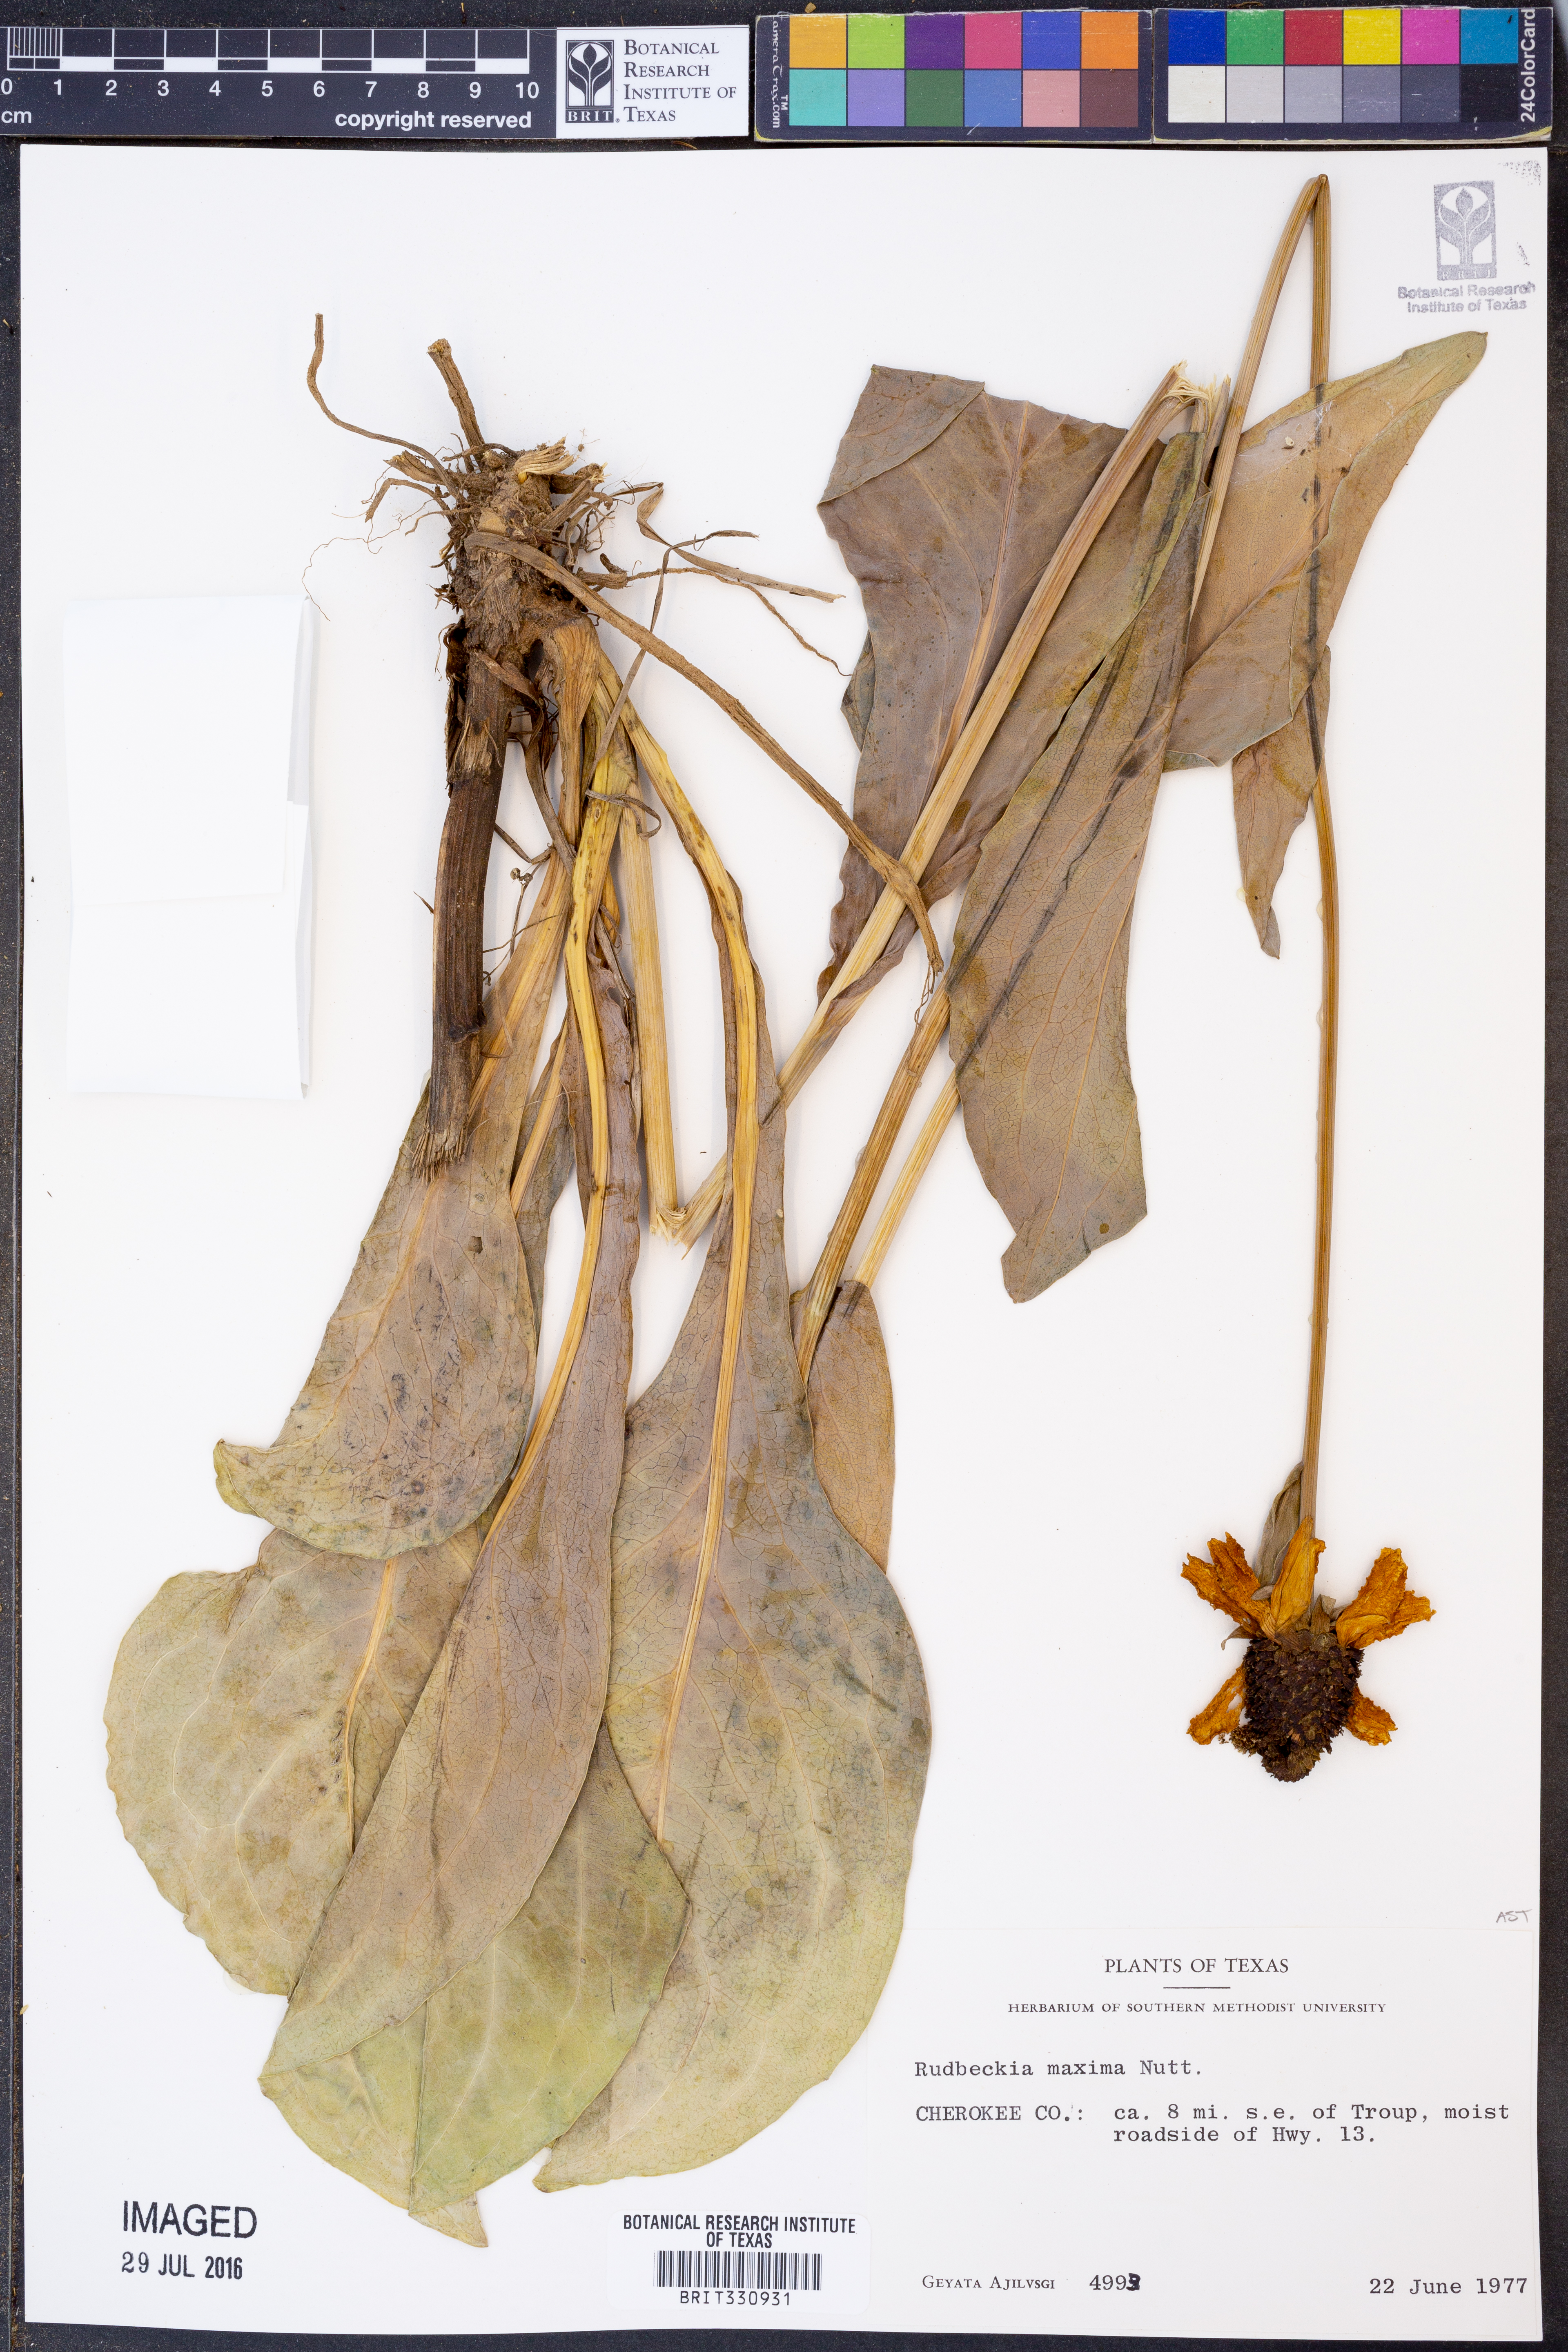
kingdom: Plantae
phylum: Tracheophyta
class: Magnoliopsida
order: Asterales
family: Asteraceae
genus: Rudbeckia
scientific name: Rudbeckia maxima
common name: Cabbage coneflower
